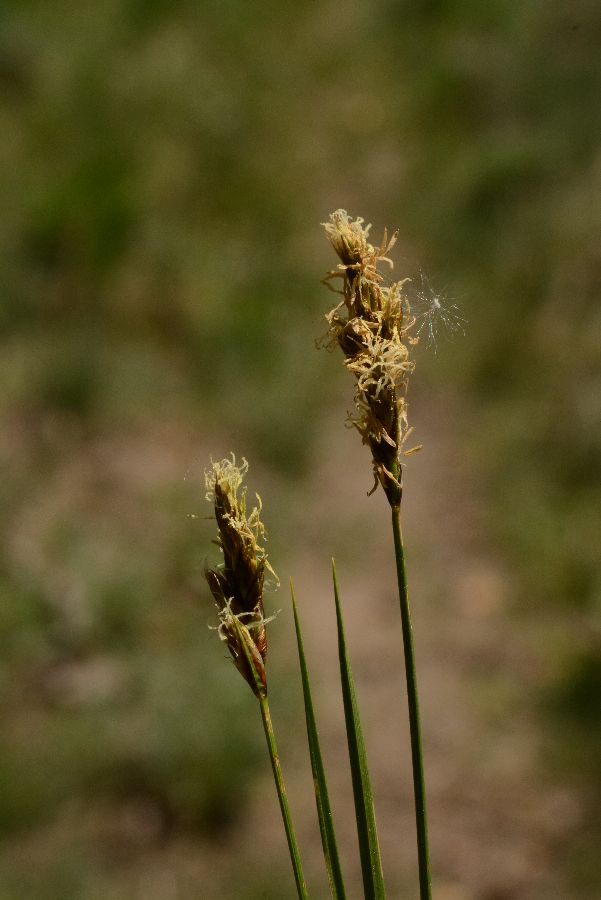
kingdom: Plantae
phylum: Tracheophyta
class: Liliopsida
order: Poales
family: Cyperaceae
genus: Carex
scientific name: Carex praecox
